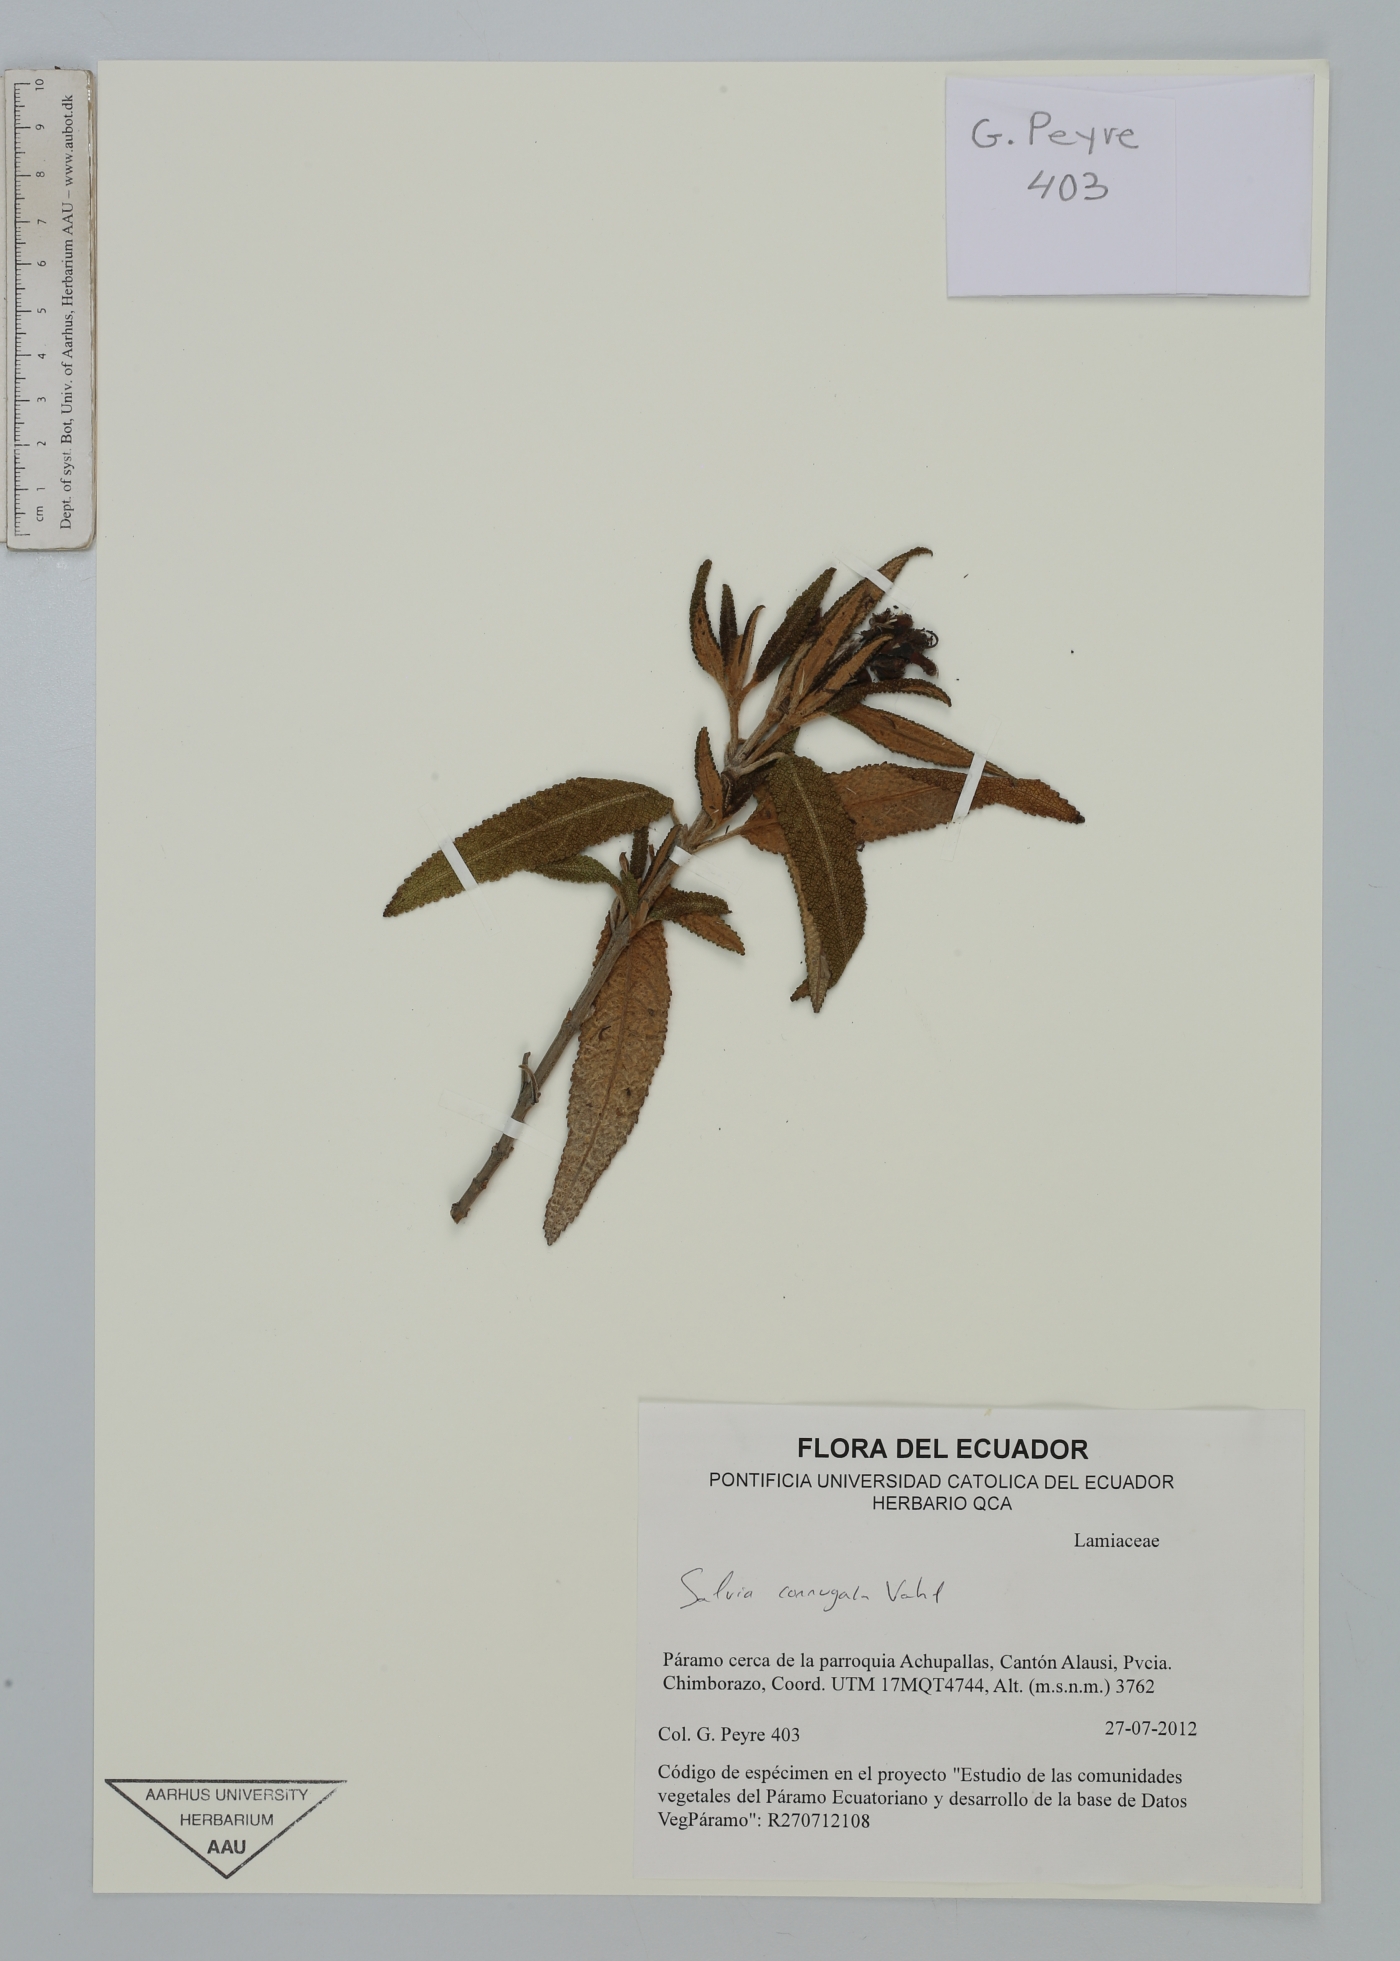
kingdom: Plantae
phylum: Tracheophyta
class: Magnoliopsida
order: Lamiales
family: Lamiaceae
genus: Salvia
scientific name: Salvia corrugata
